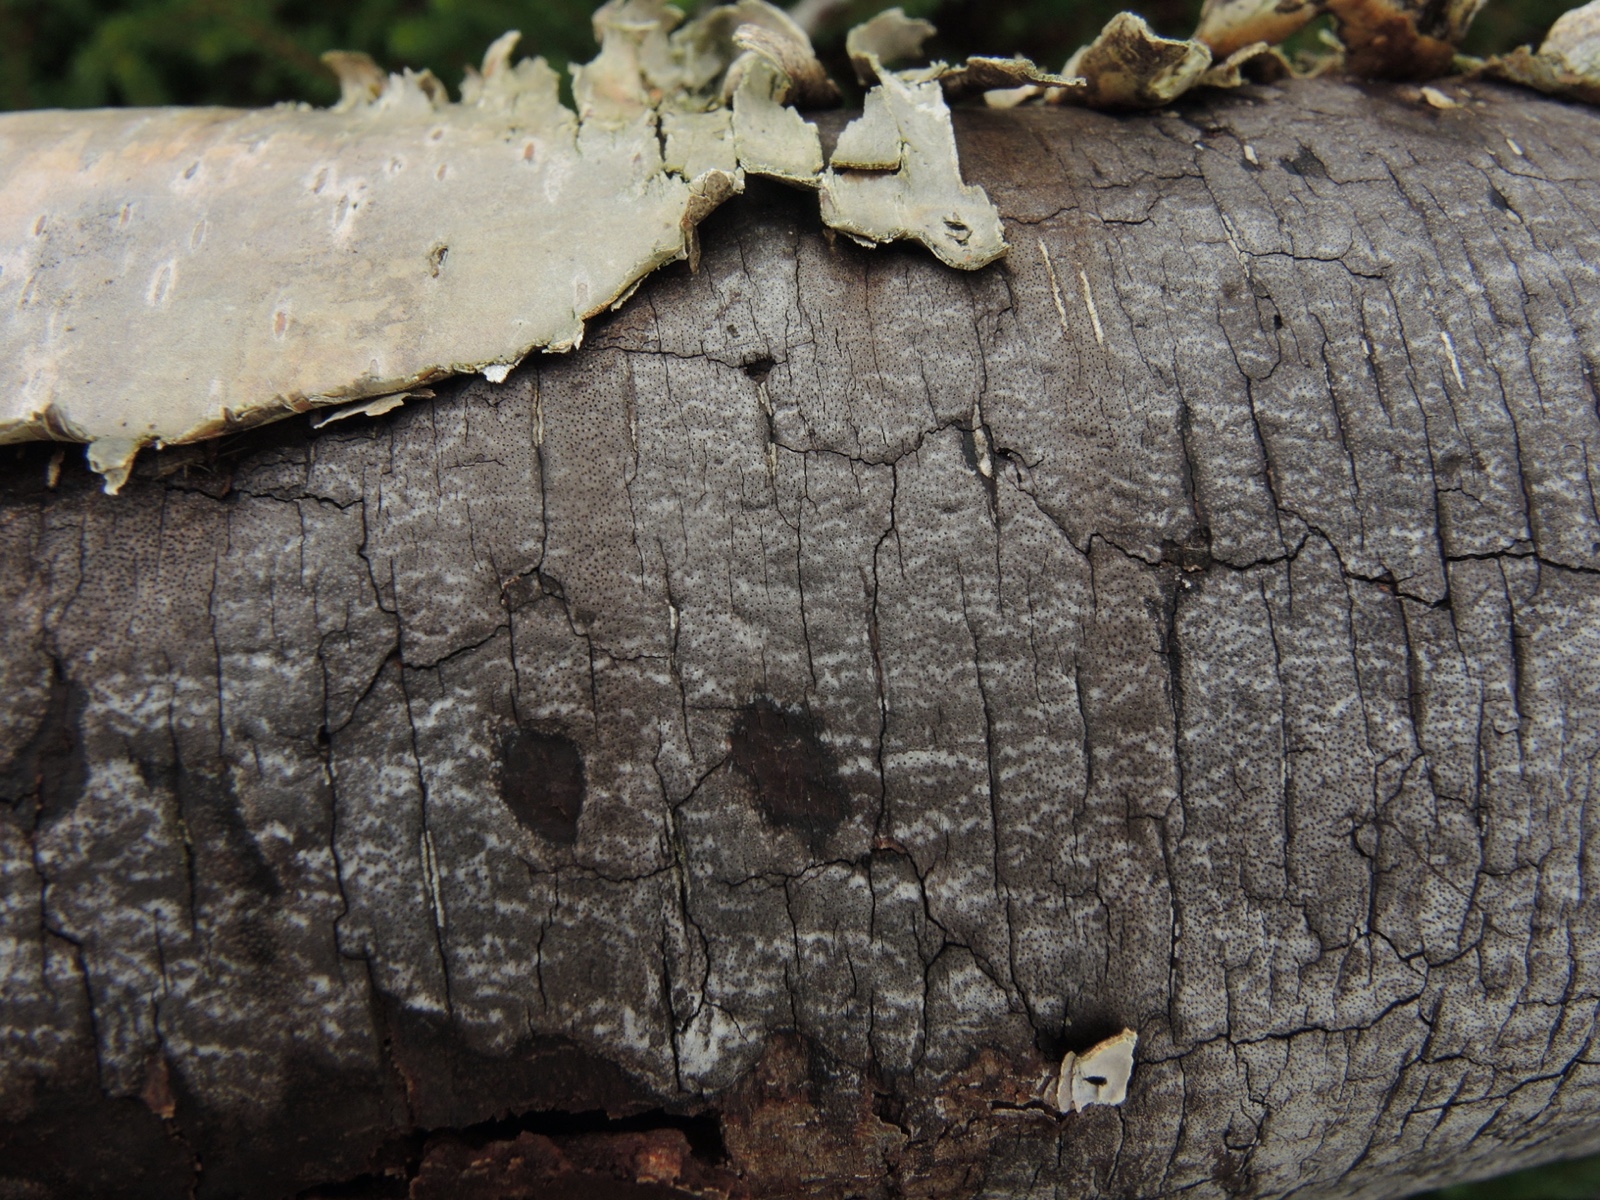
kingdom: Fungi
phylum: Ascomycota
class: Sordariomycetes
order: Xylariales
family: Diatrypaceae
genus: Diatrype
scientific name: Diatrype
